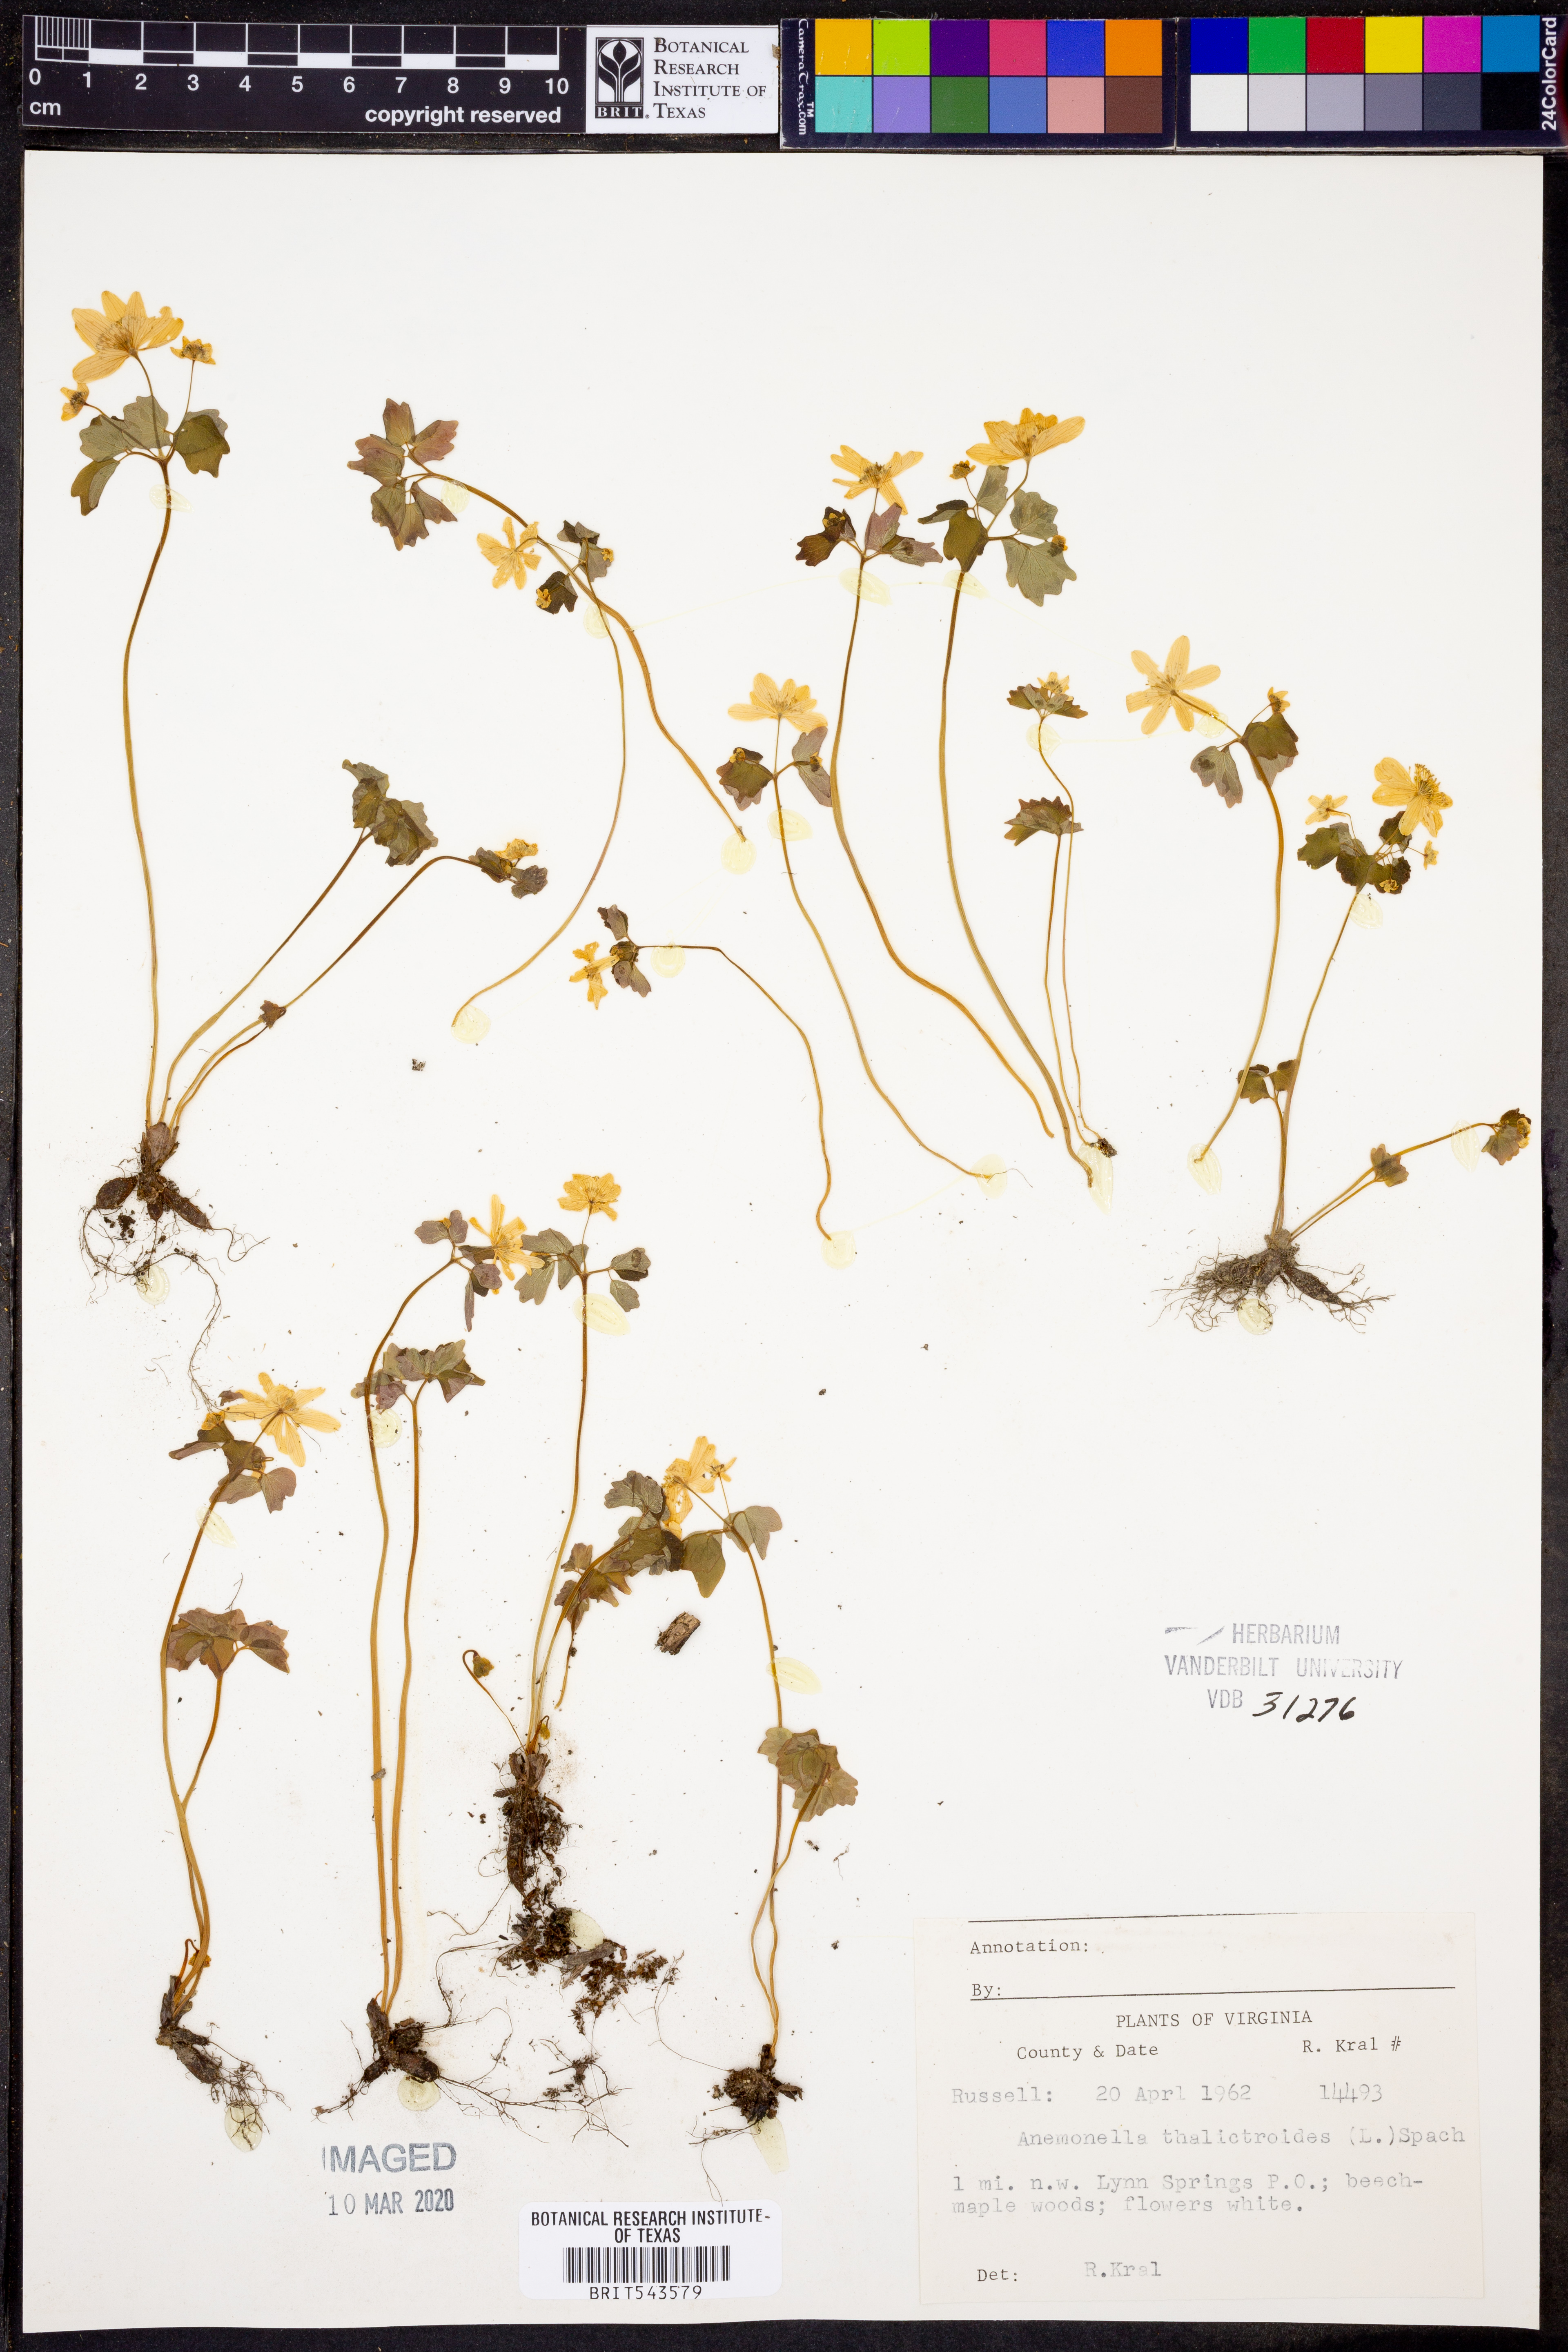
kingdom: Plantae
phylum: Tracheophyta
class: Magnoliopsida
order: Ranunculales
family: Ranunculaceae
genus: Thalictrum
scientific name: Thalictrum thalictroides
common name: Rue-anemone
